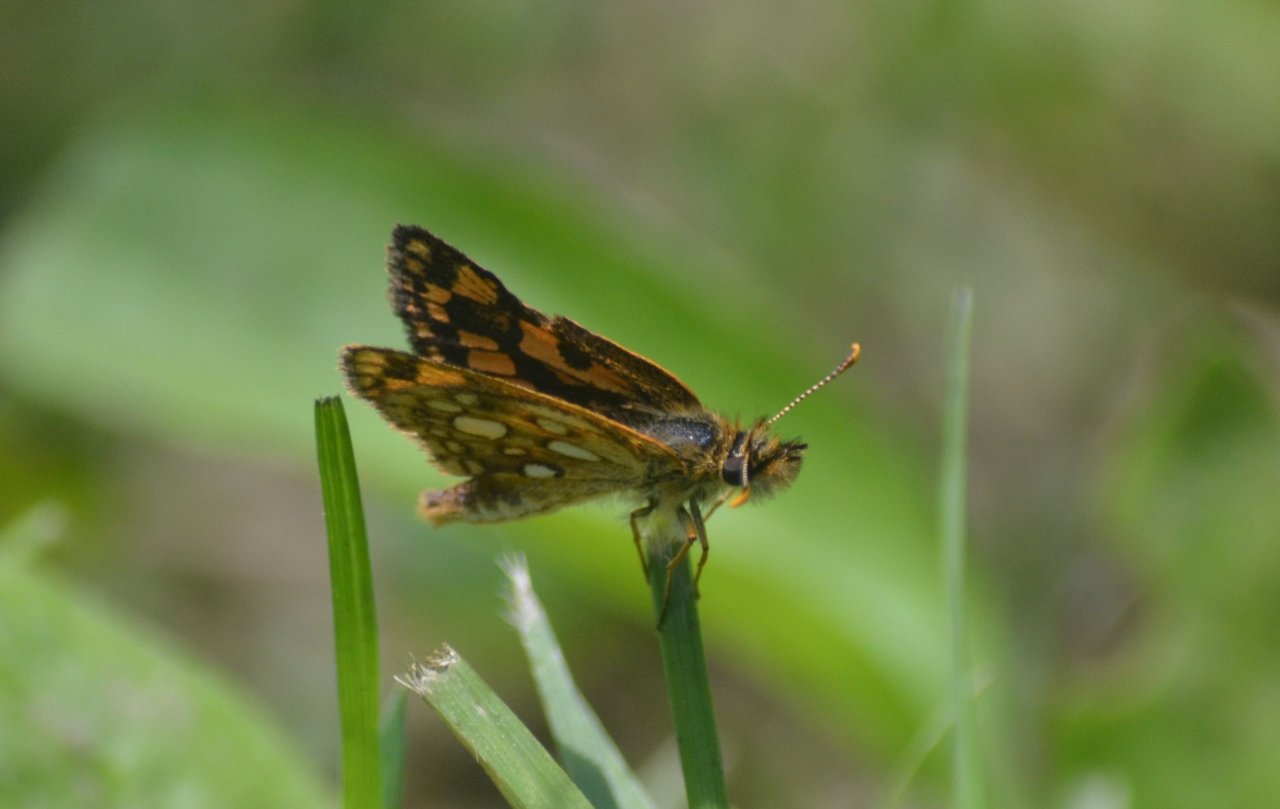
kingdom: Animalia
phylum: Arthropoda
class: Insecta
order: Lepidoptera
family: Hesperiidae
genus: Carterocephalus
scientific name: Carterocephalus palaemon
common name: Chequered Skipper
